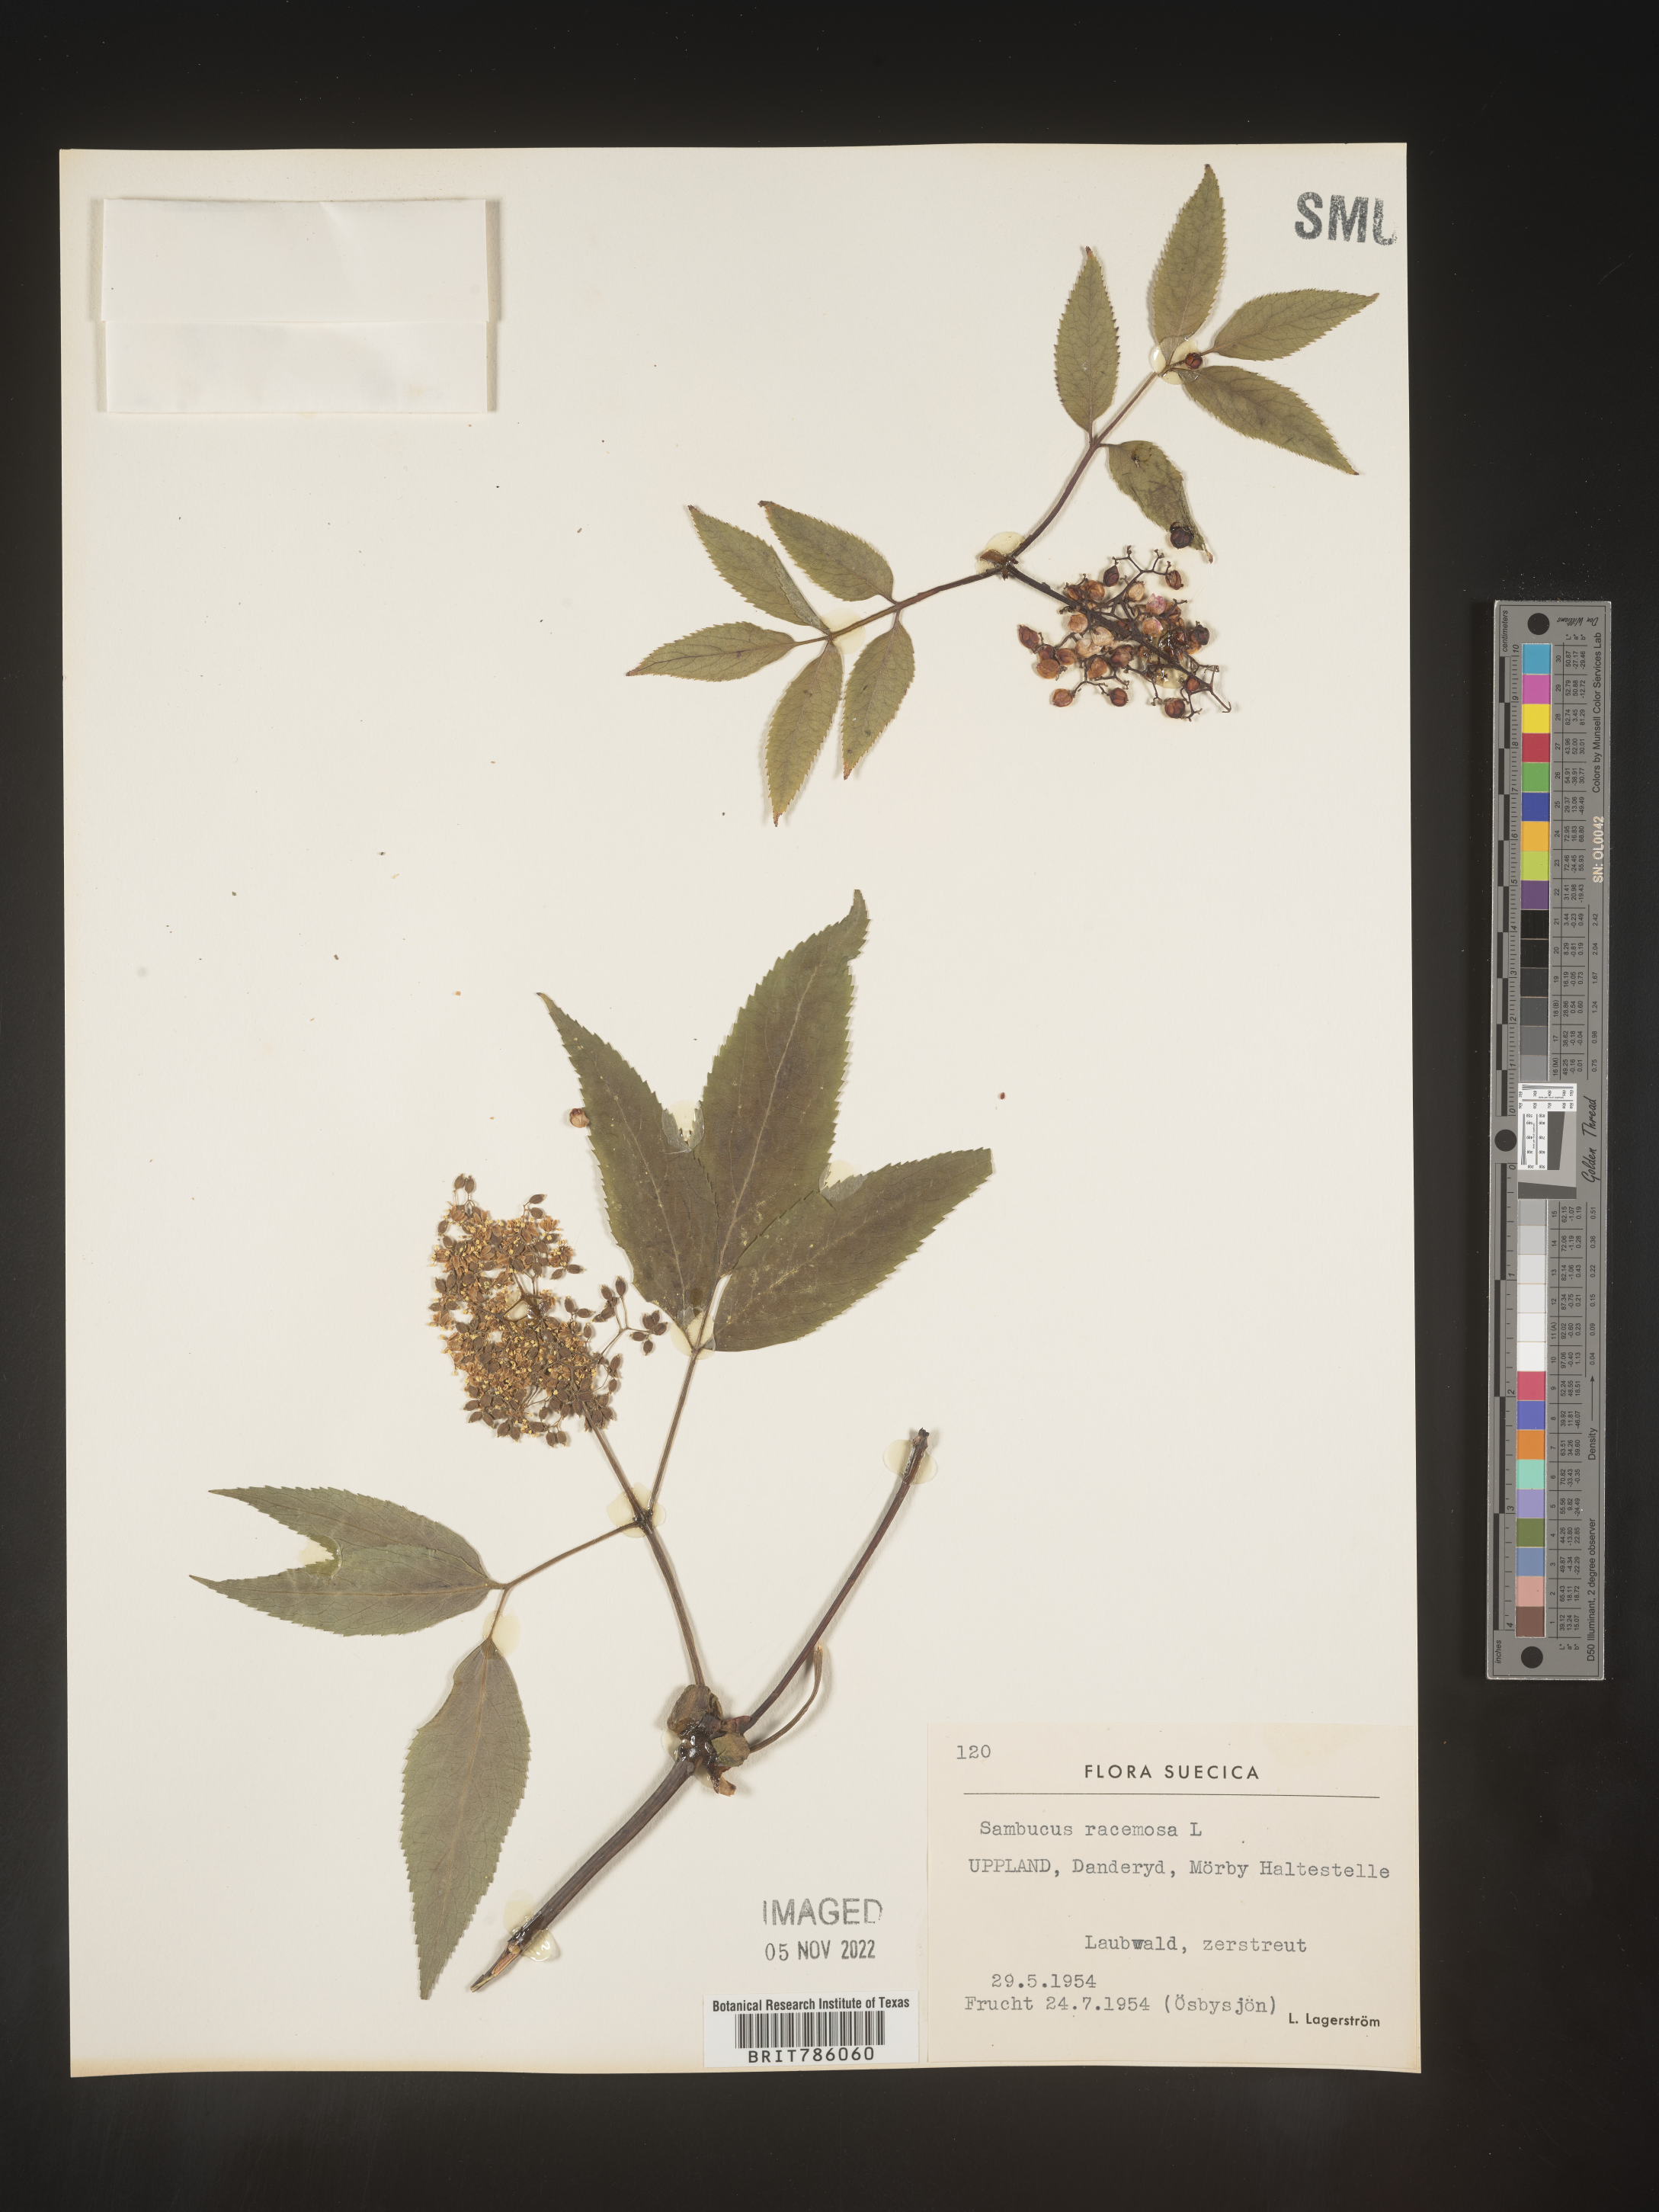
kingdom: Plantae
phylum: Tracheophyta
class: Magnoliopsida
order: Dipsacales
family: Viburnaceae
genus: Sambucus
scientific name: Sambucus
